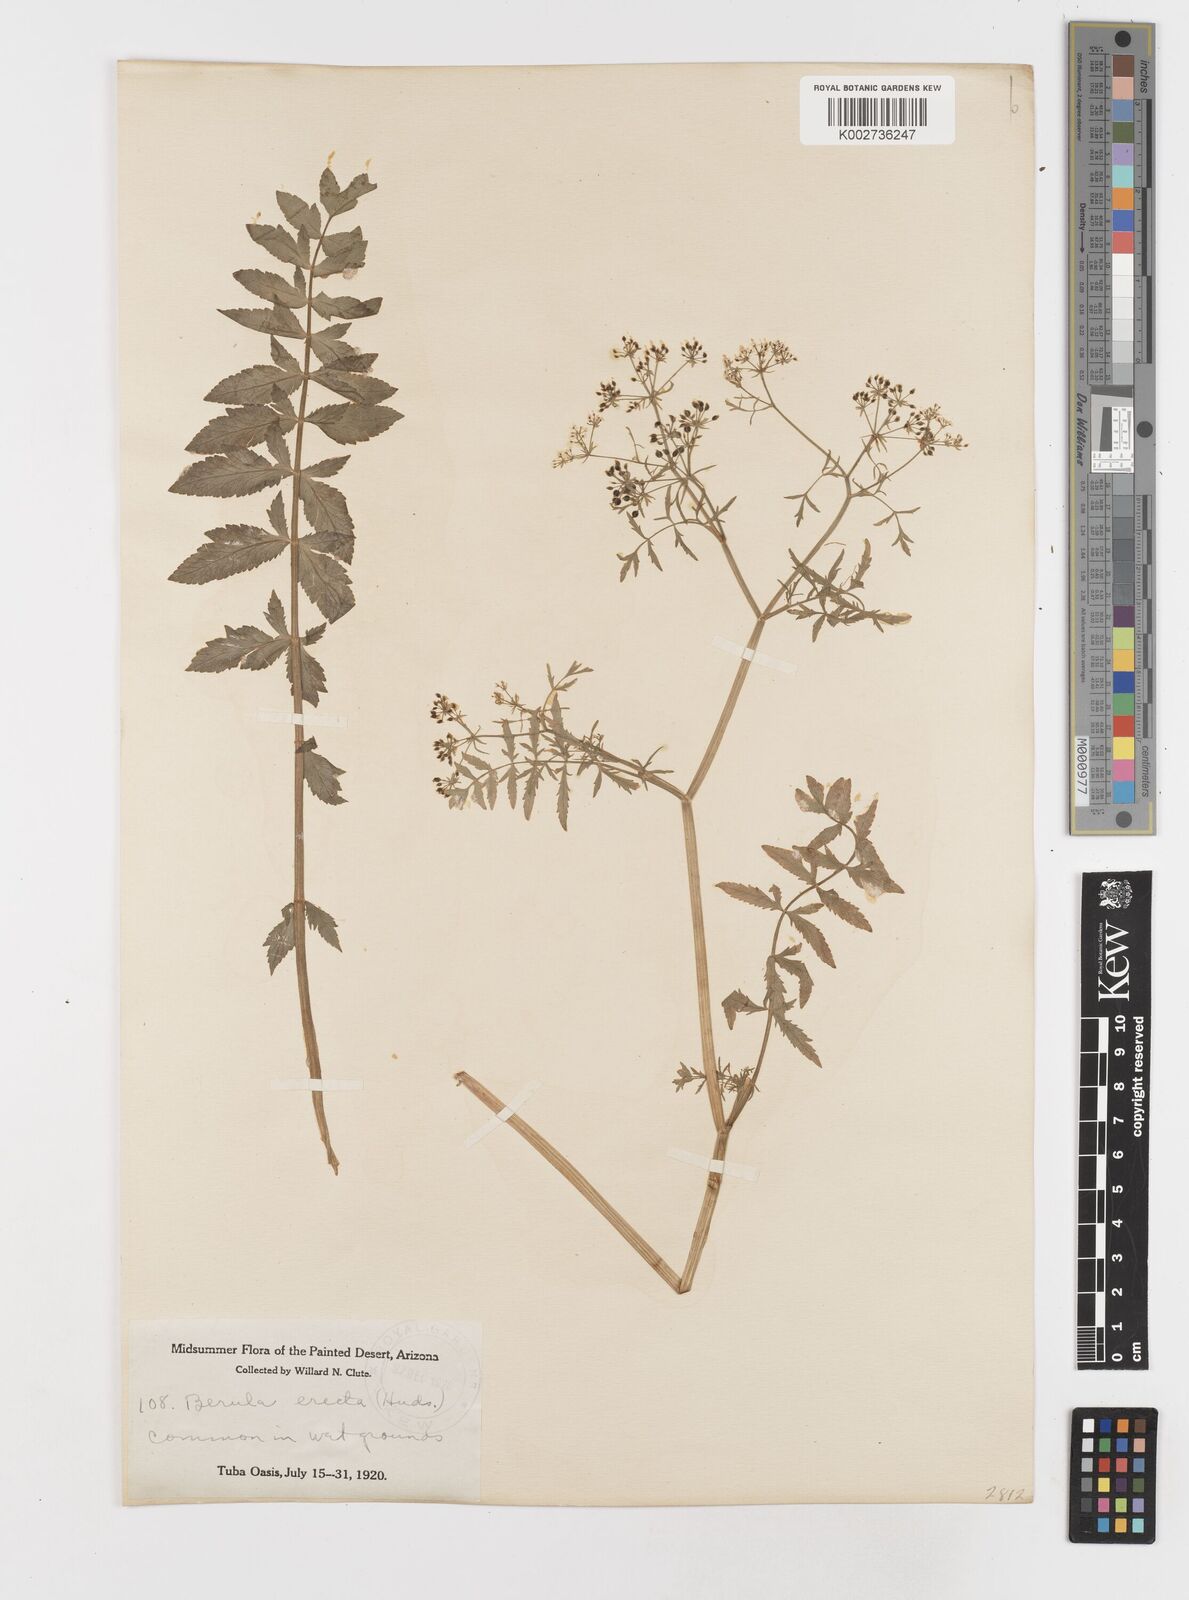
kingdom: Plantae
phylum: Tracheophyta
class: Magnoliopsida
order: Apiales
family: Apiaceae
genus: Berula
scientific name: Berula erecta
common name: Lesser water-parsnip
